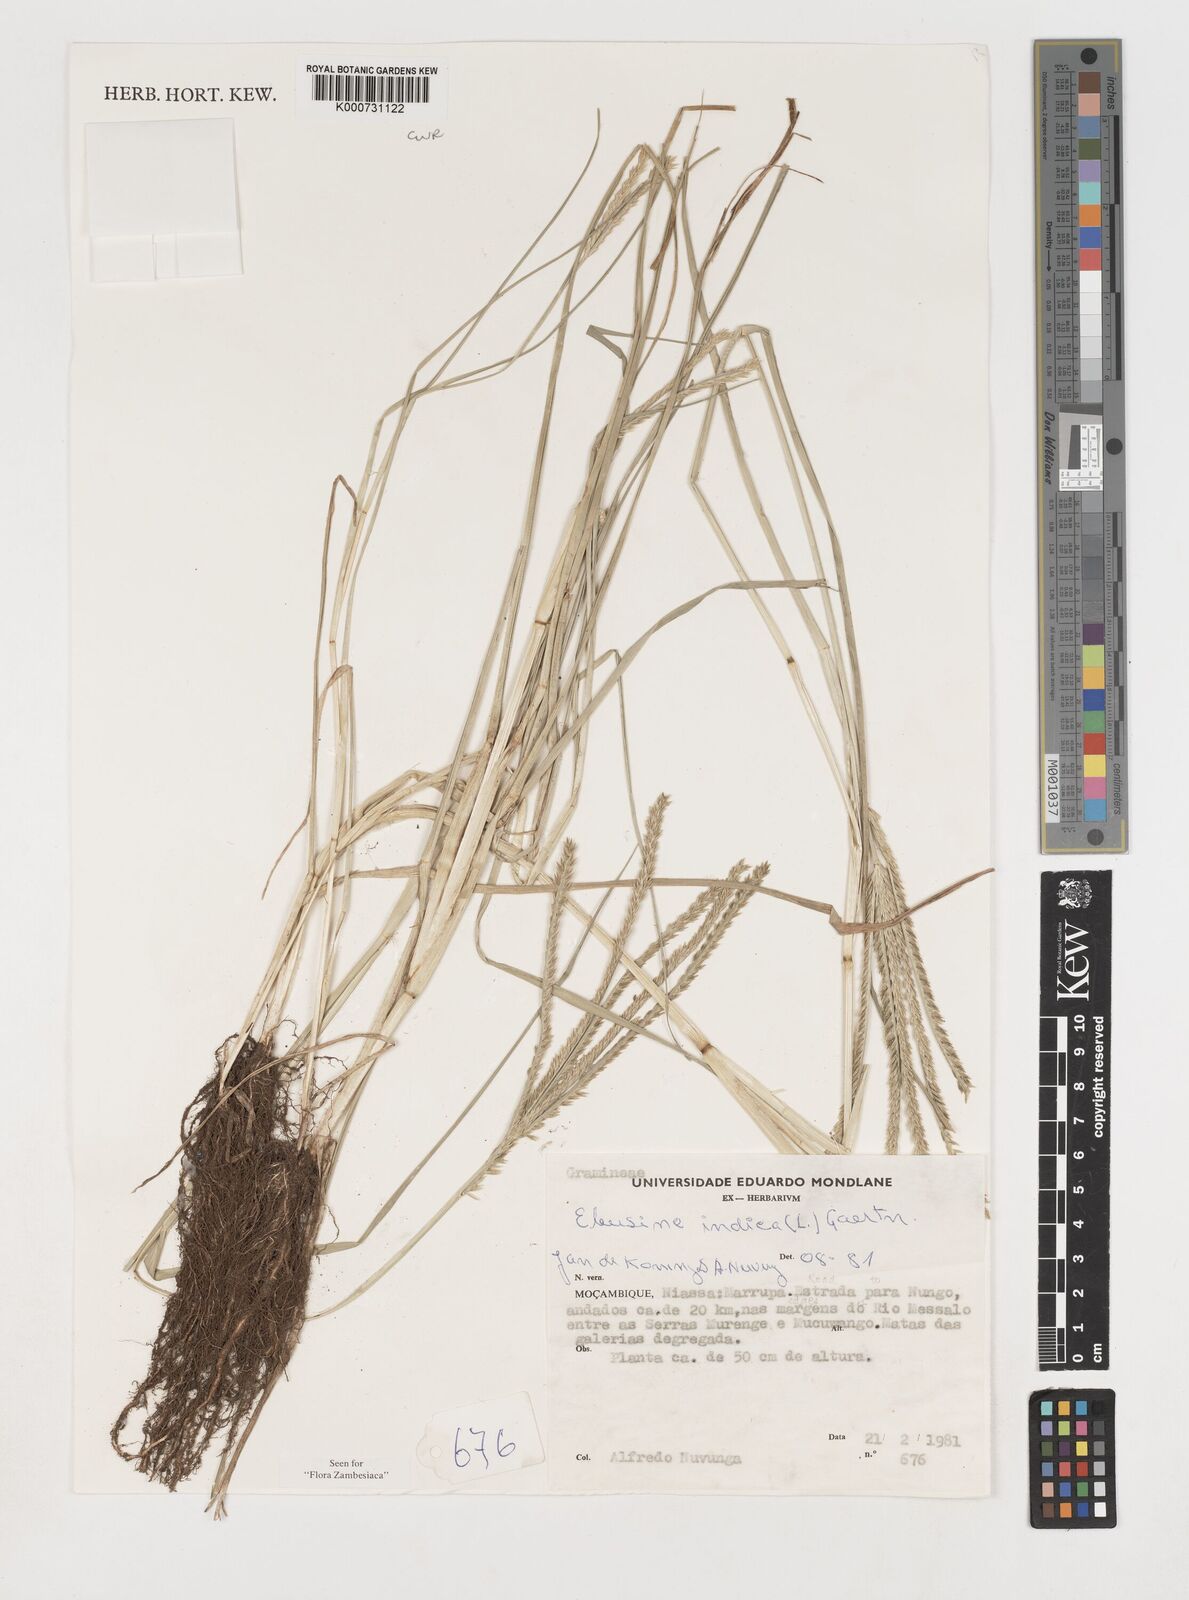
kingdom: Plantae
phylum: Tracheophyta
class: Liliopsida
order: Poales
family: Poaceae
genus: Eleusine
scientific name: Eleusine indica
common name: Yard-grass
